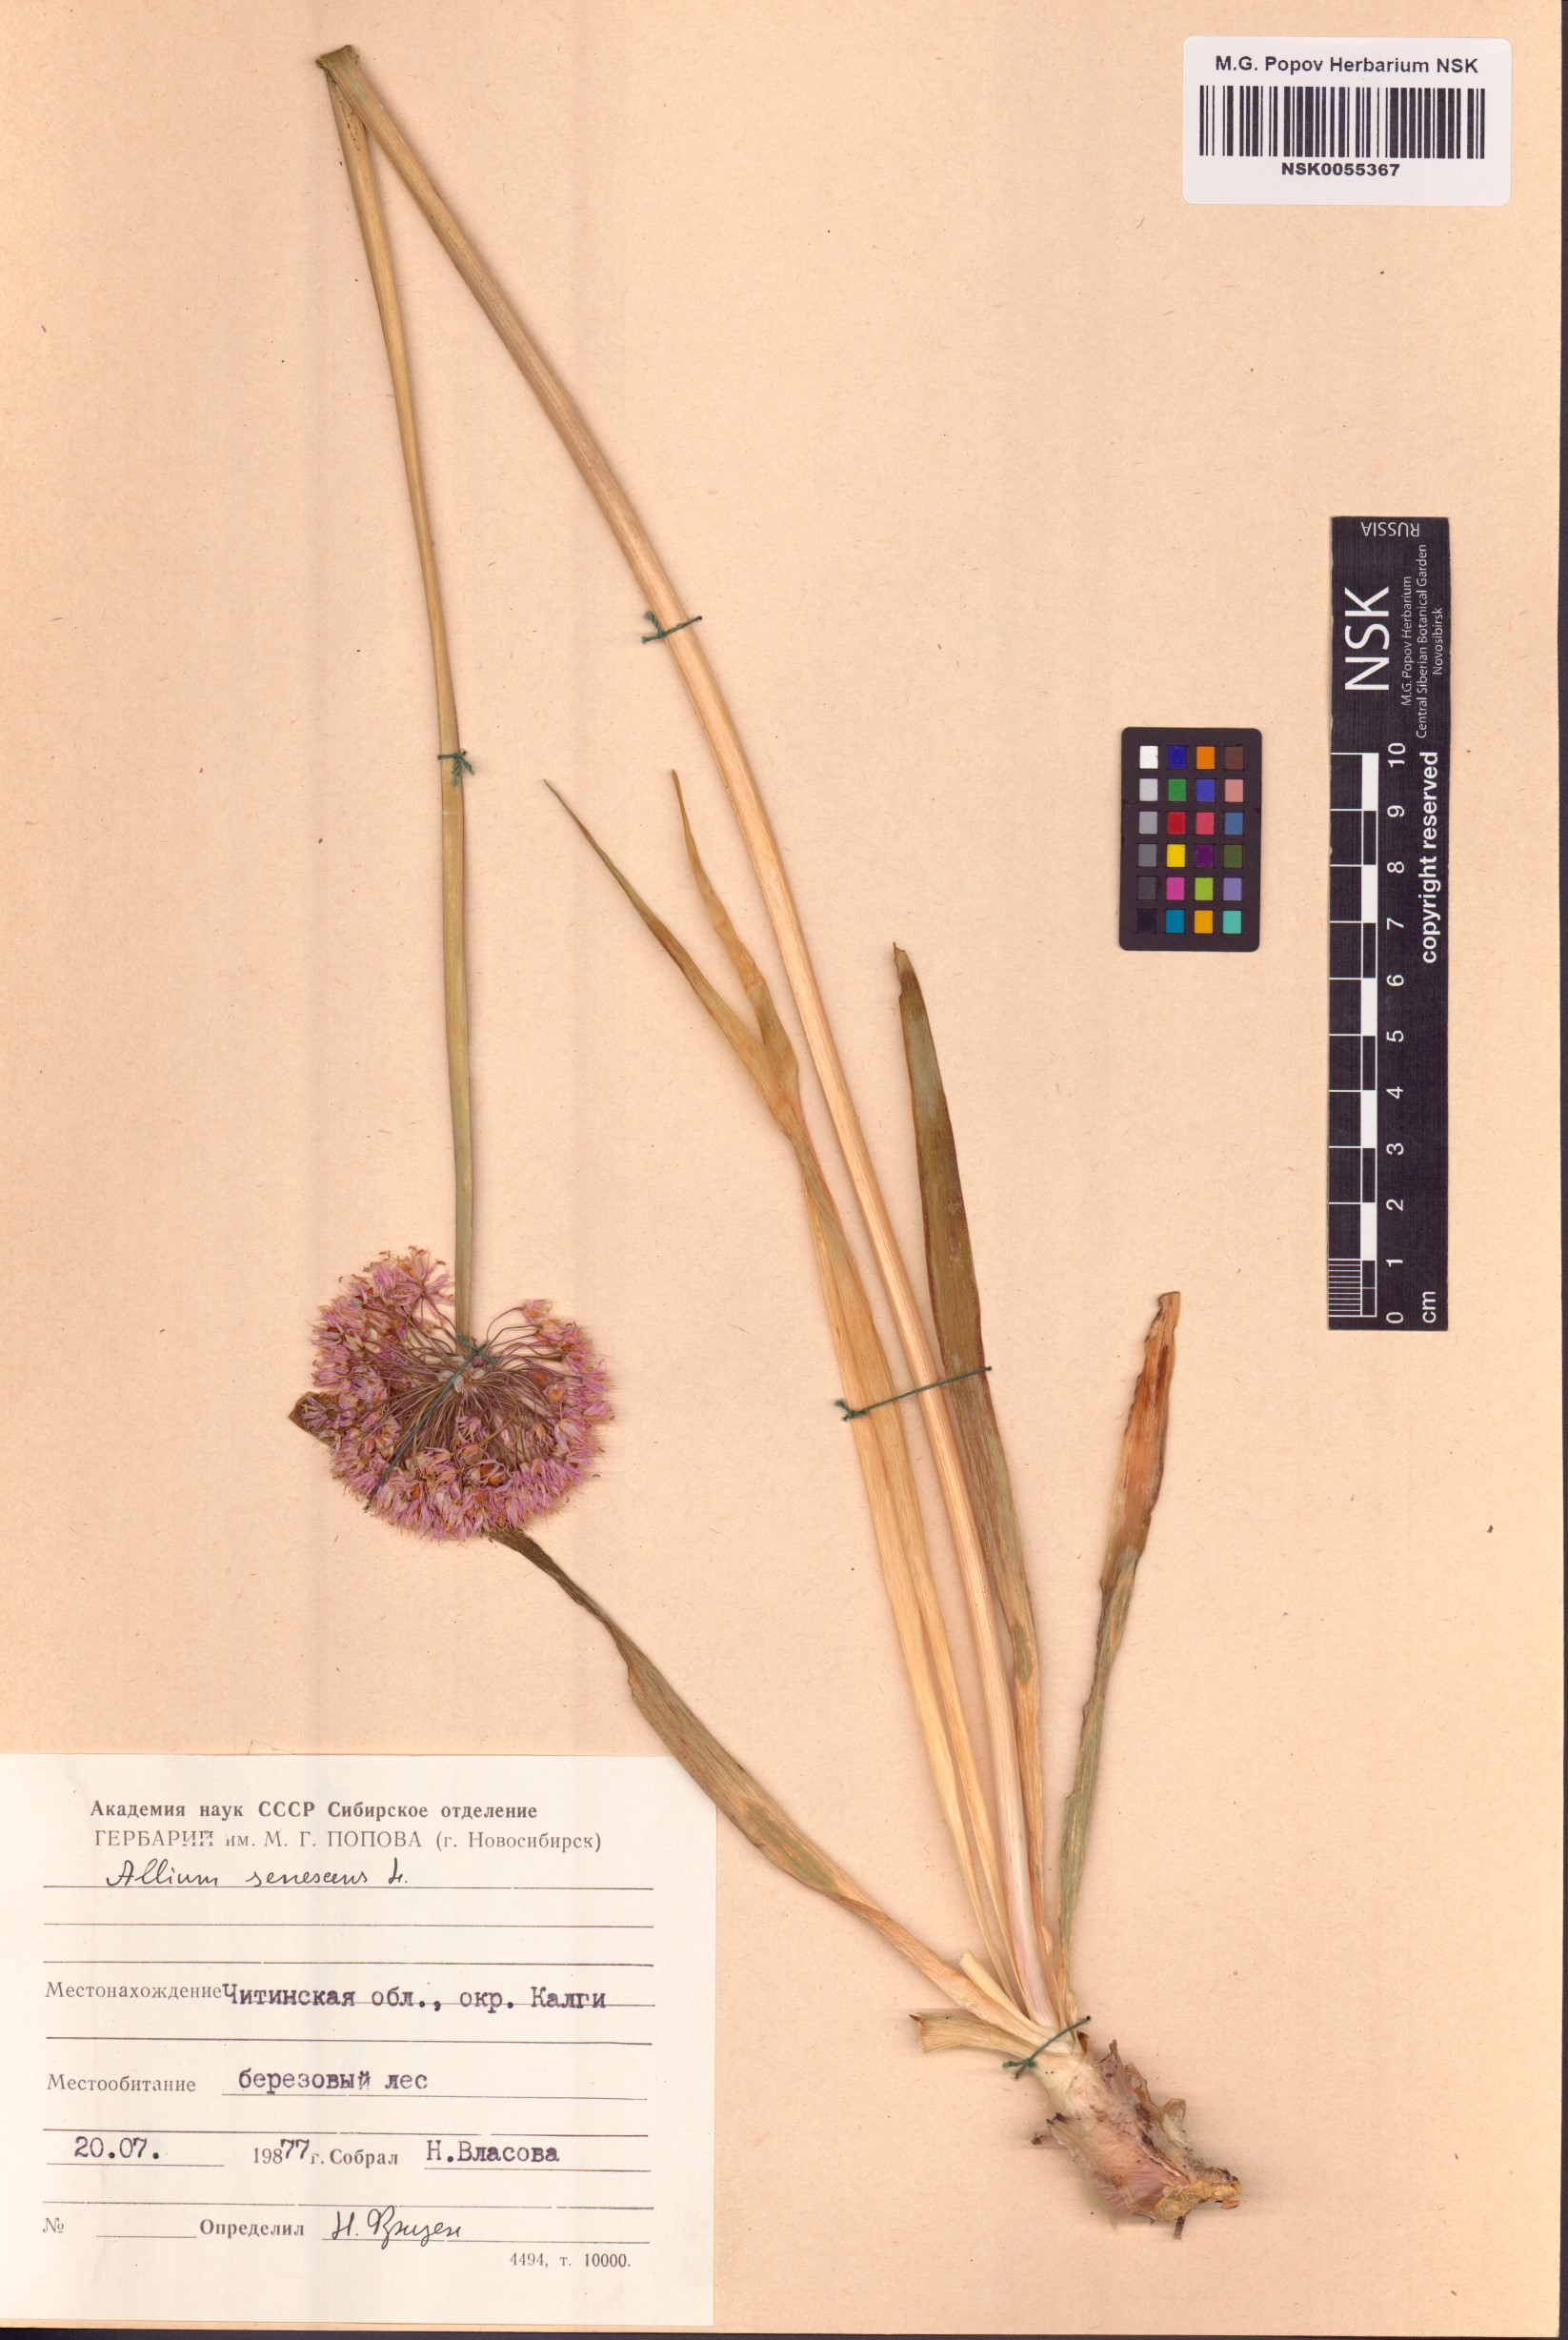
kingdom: Plantae
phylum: Tracheophyta
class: Liliopsida
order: Asparagales
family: Amaryllidaceae
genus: Allium
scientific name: Allium senescens
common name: German garlic
